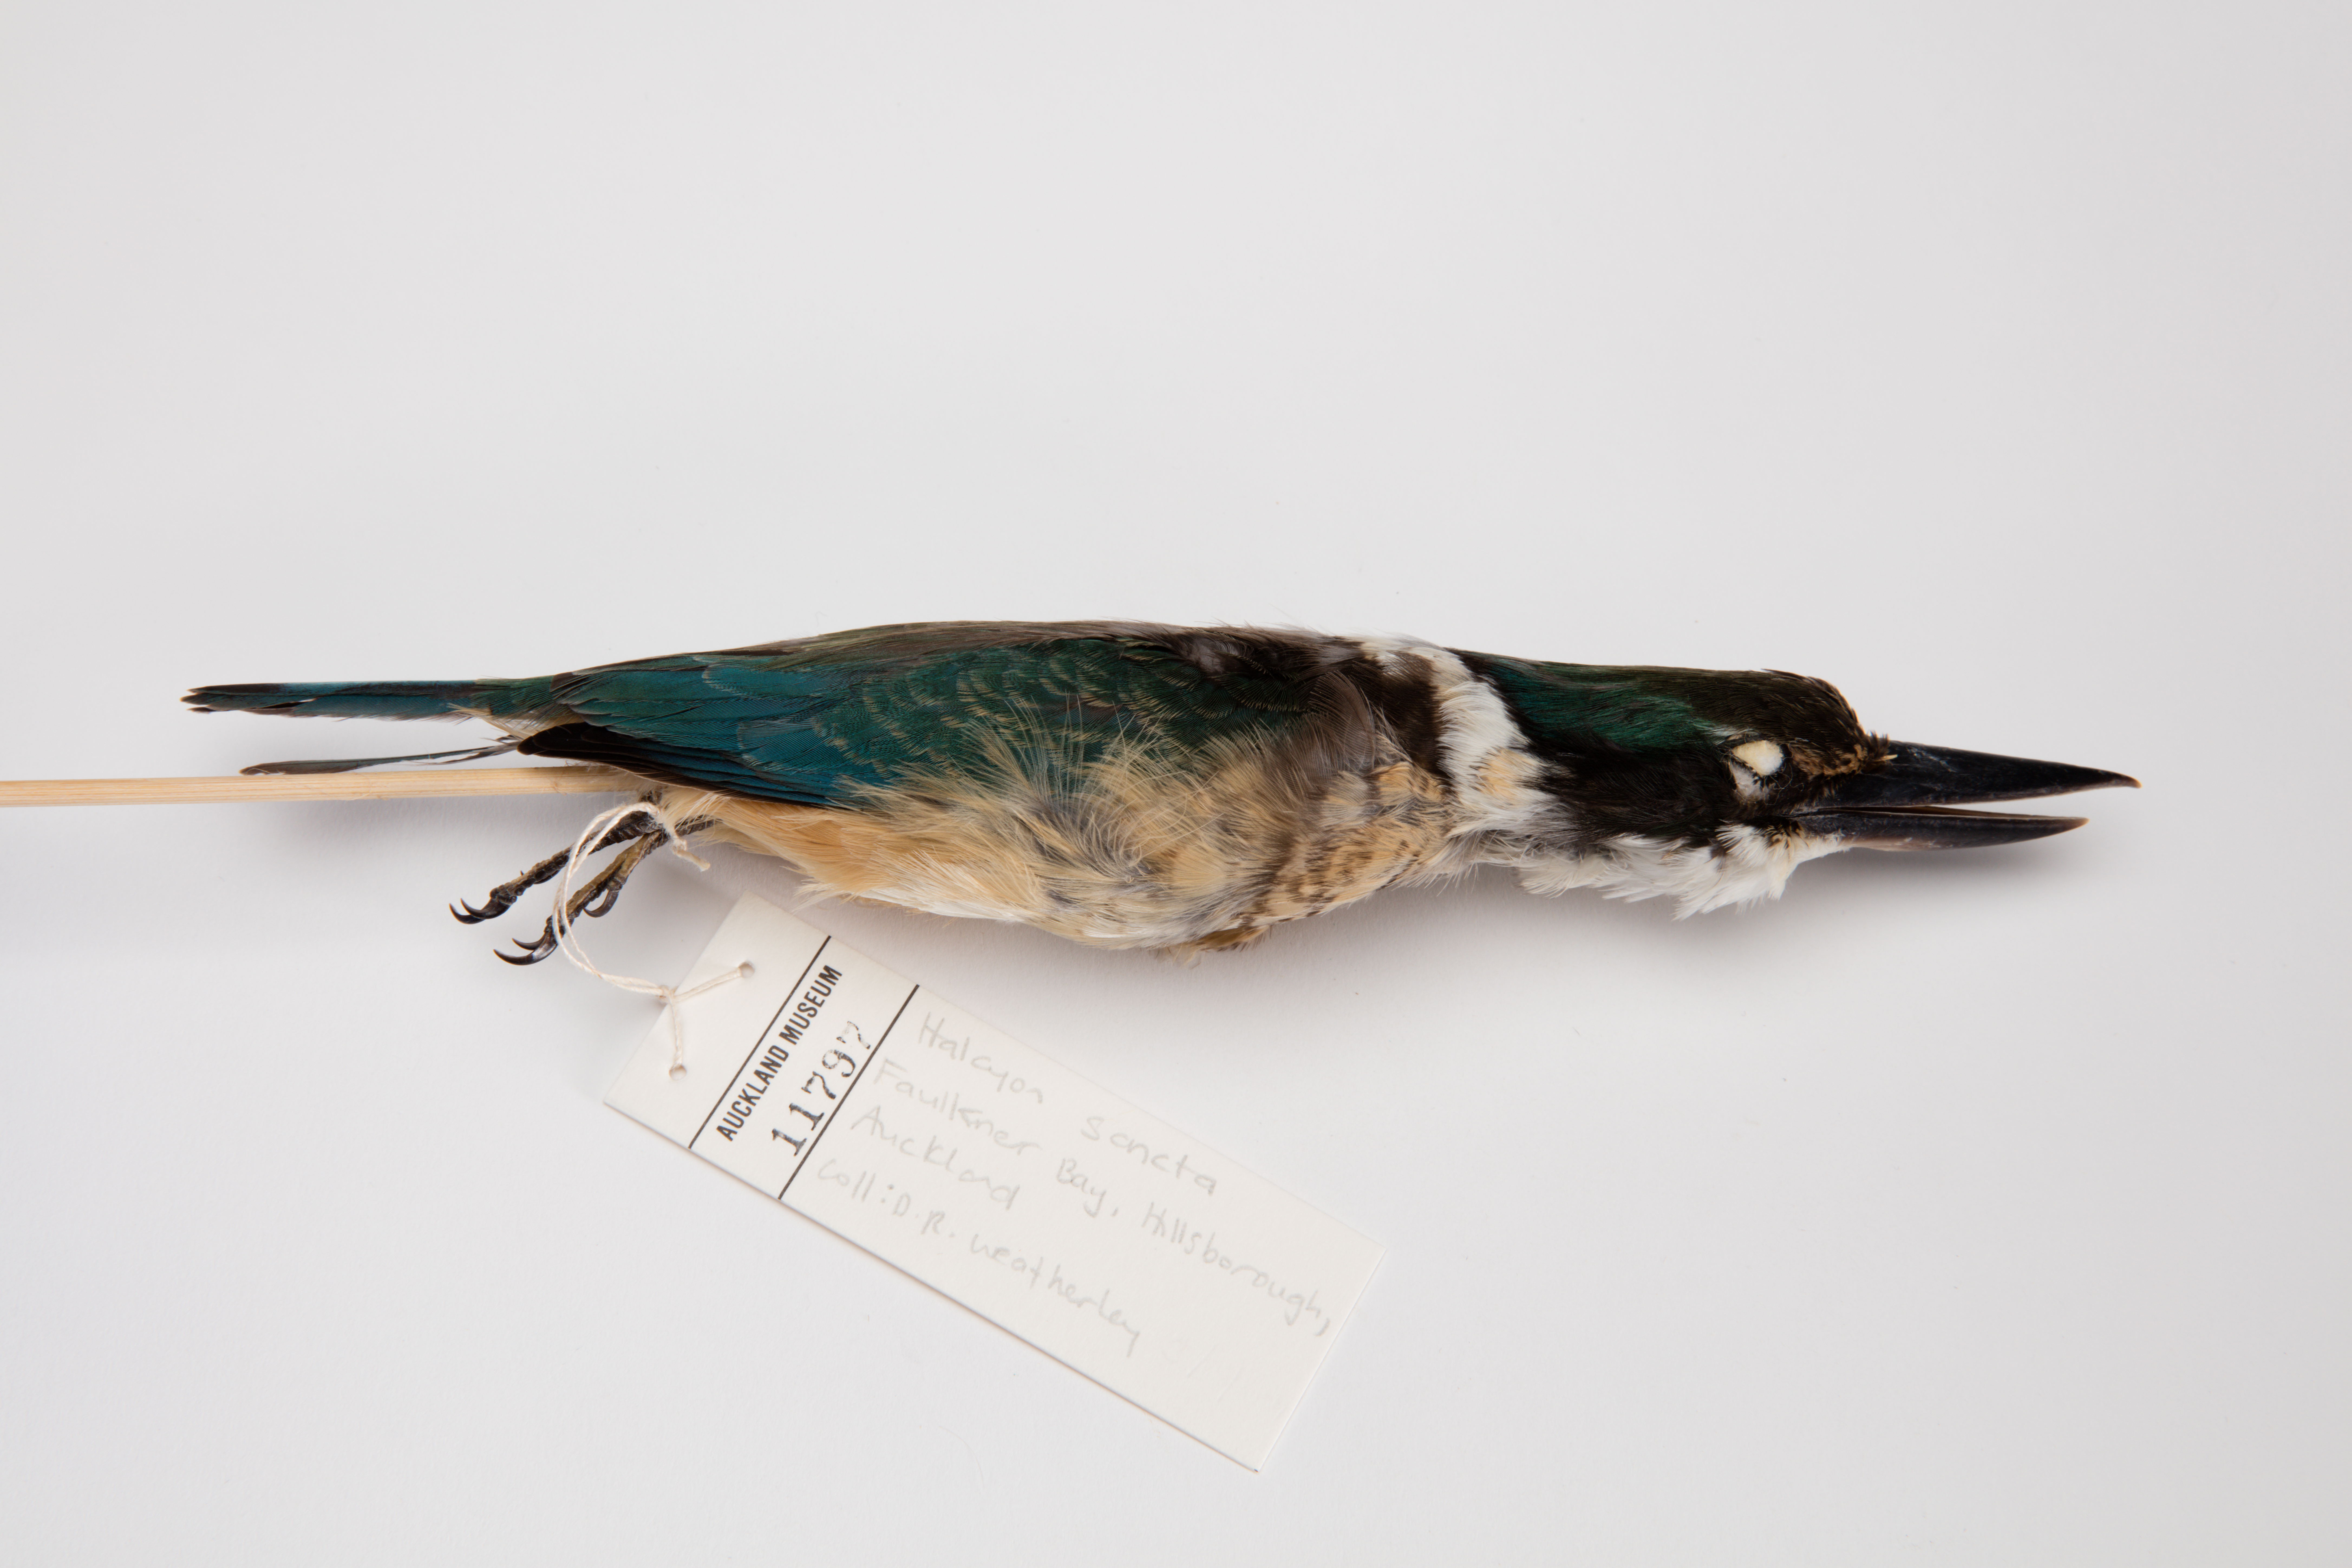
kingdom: Animalia
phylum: Chordata
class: Aves
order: Coraciiformes
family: Alcedinidae
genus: Todiramphus
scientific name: Todiramphus sanctus
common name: Sacred kingfisher
